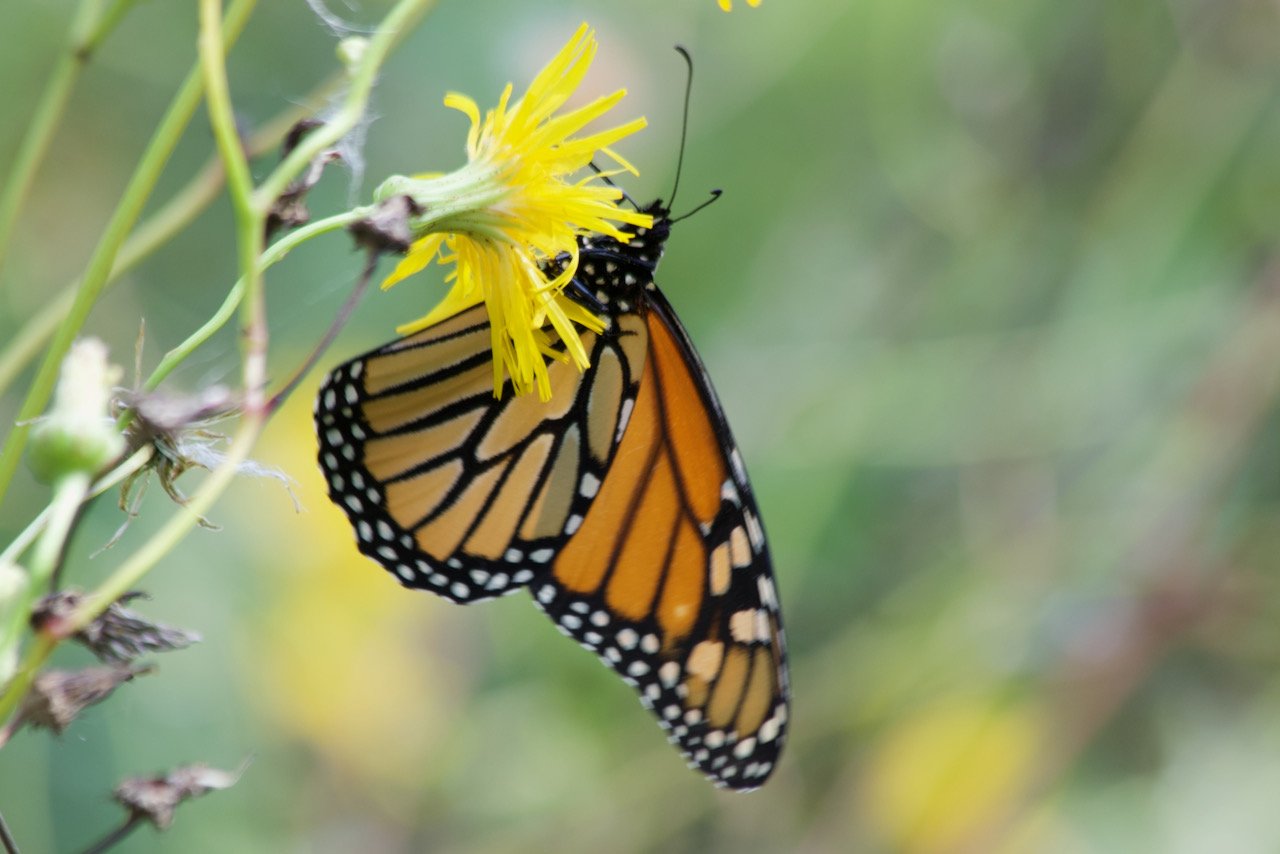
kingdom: Animalia
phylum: Arthropoda
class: Insecta
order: Lepidoptera
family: Nymphalidae
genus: Danaus
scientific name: Danaus plexippus
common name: Monarch
